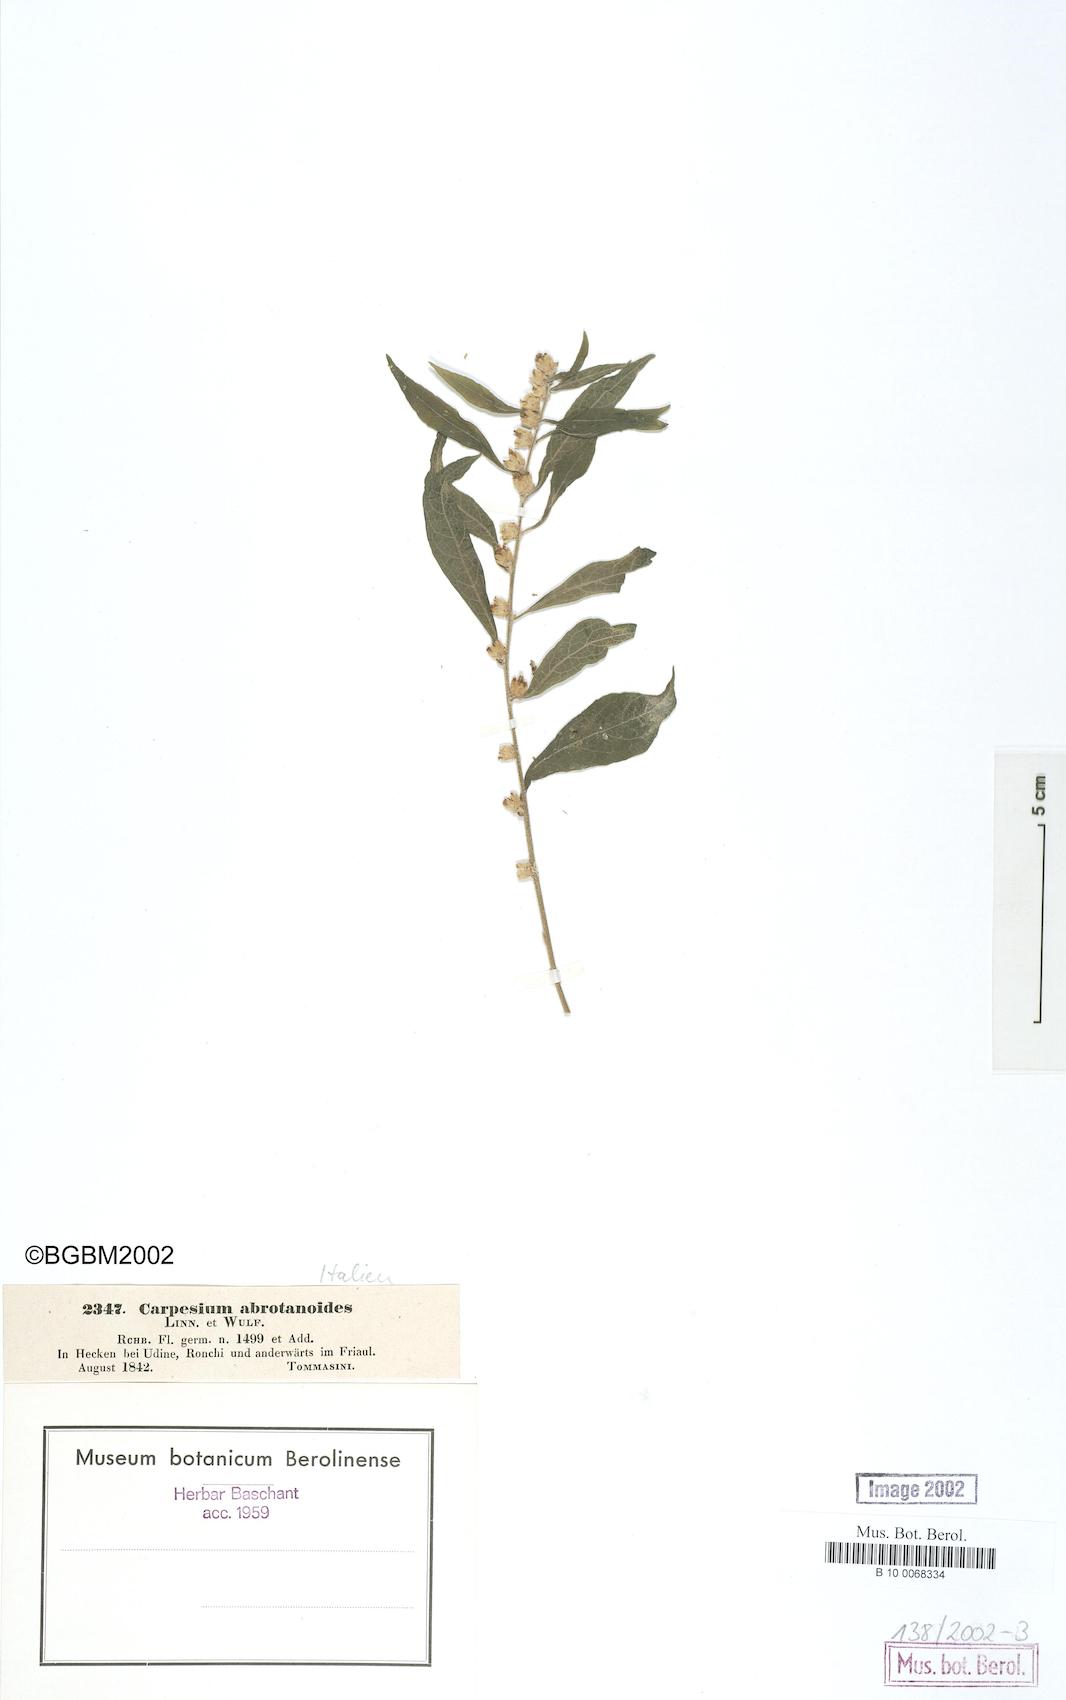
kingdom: Plantae
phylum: Tracheophyta
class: Magnoliopsida
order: Asterales
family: Asteraceae
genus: Carpesium
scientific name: Carpesium abrotanoides
